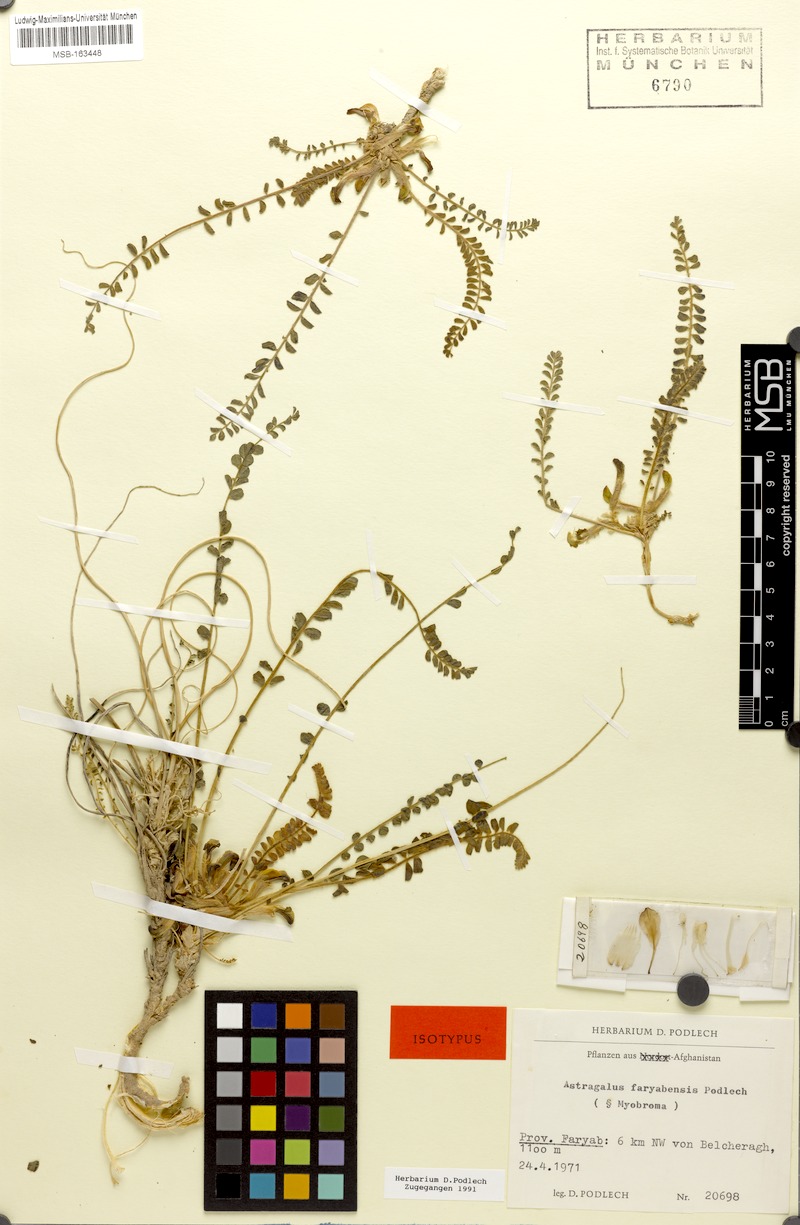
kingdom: Plantae
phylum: Tracheophyta
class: Magnoliopsida
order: Fabales
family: Fabaceae
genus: Astragalus
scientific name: Astragalus nephtonensis
